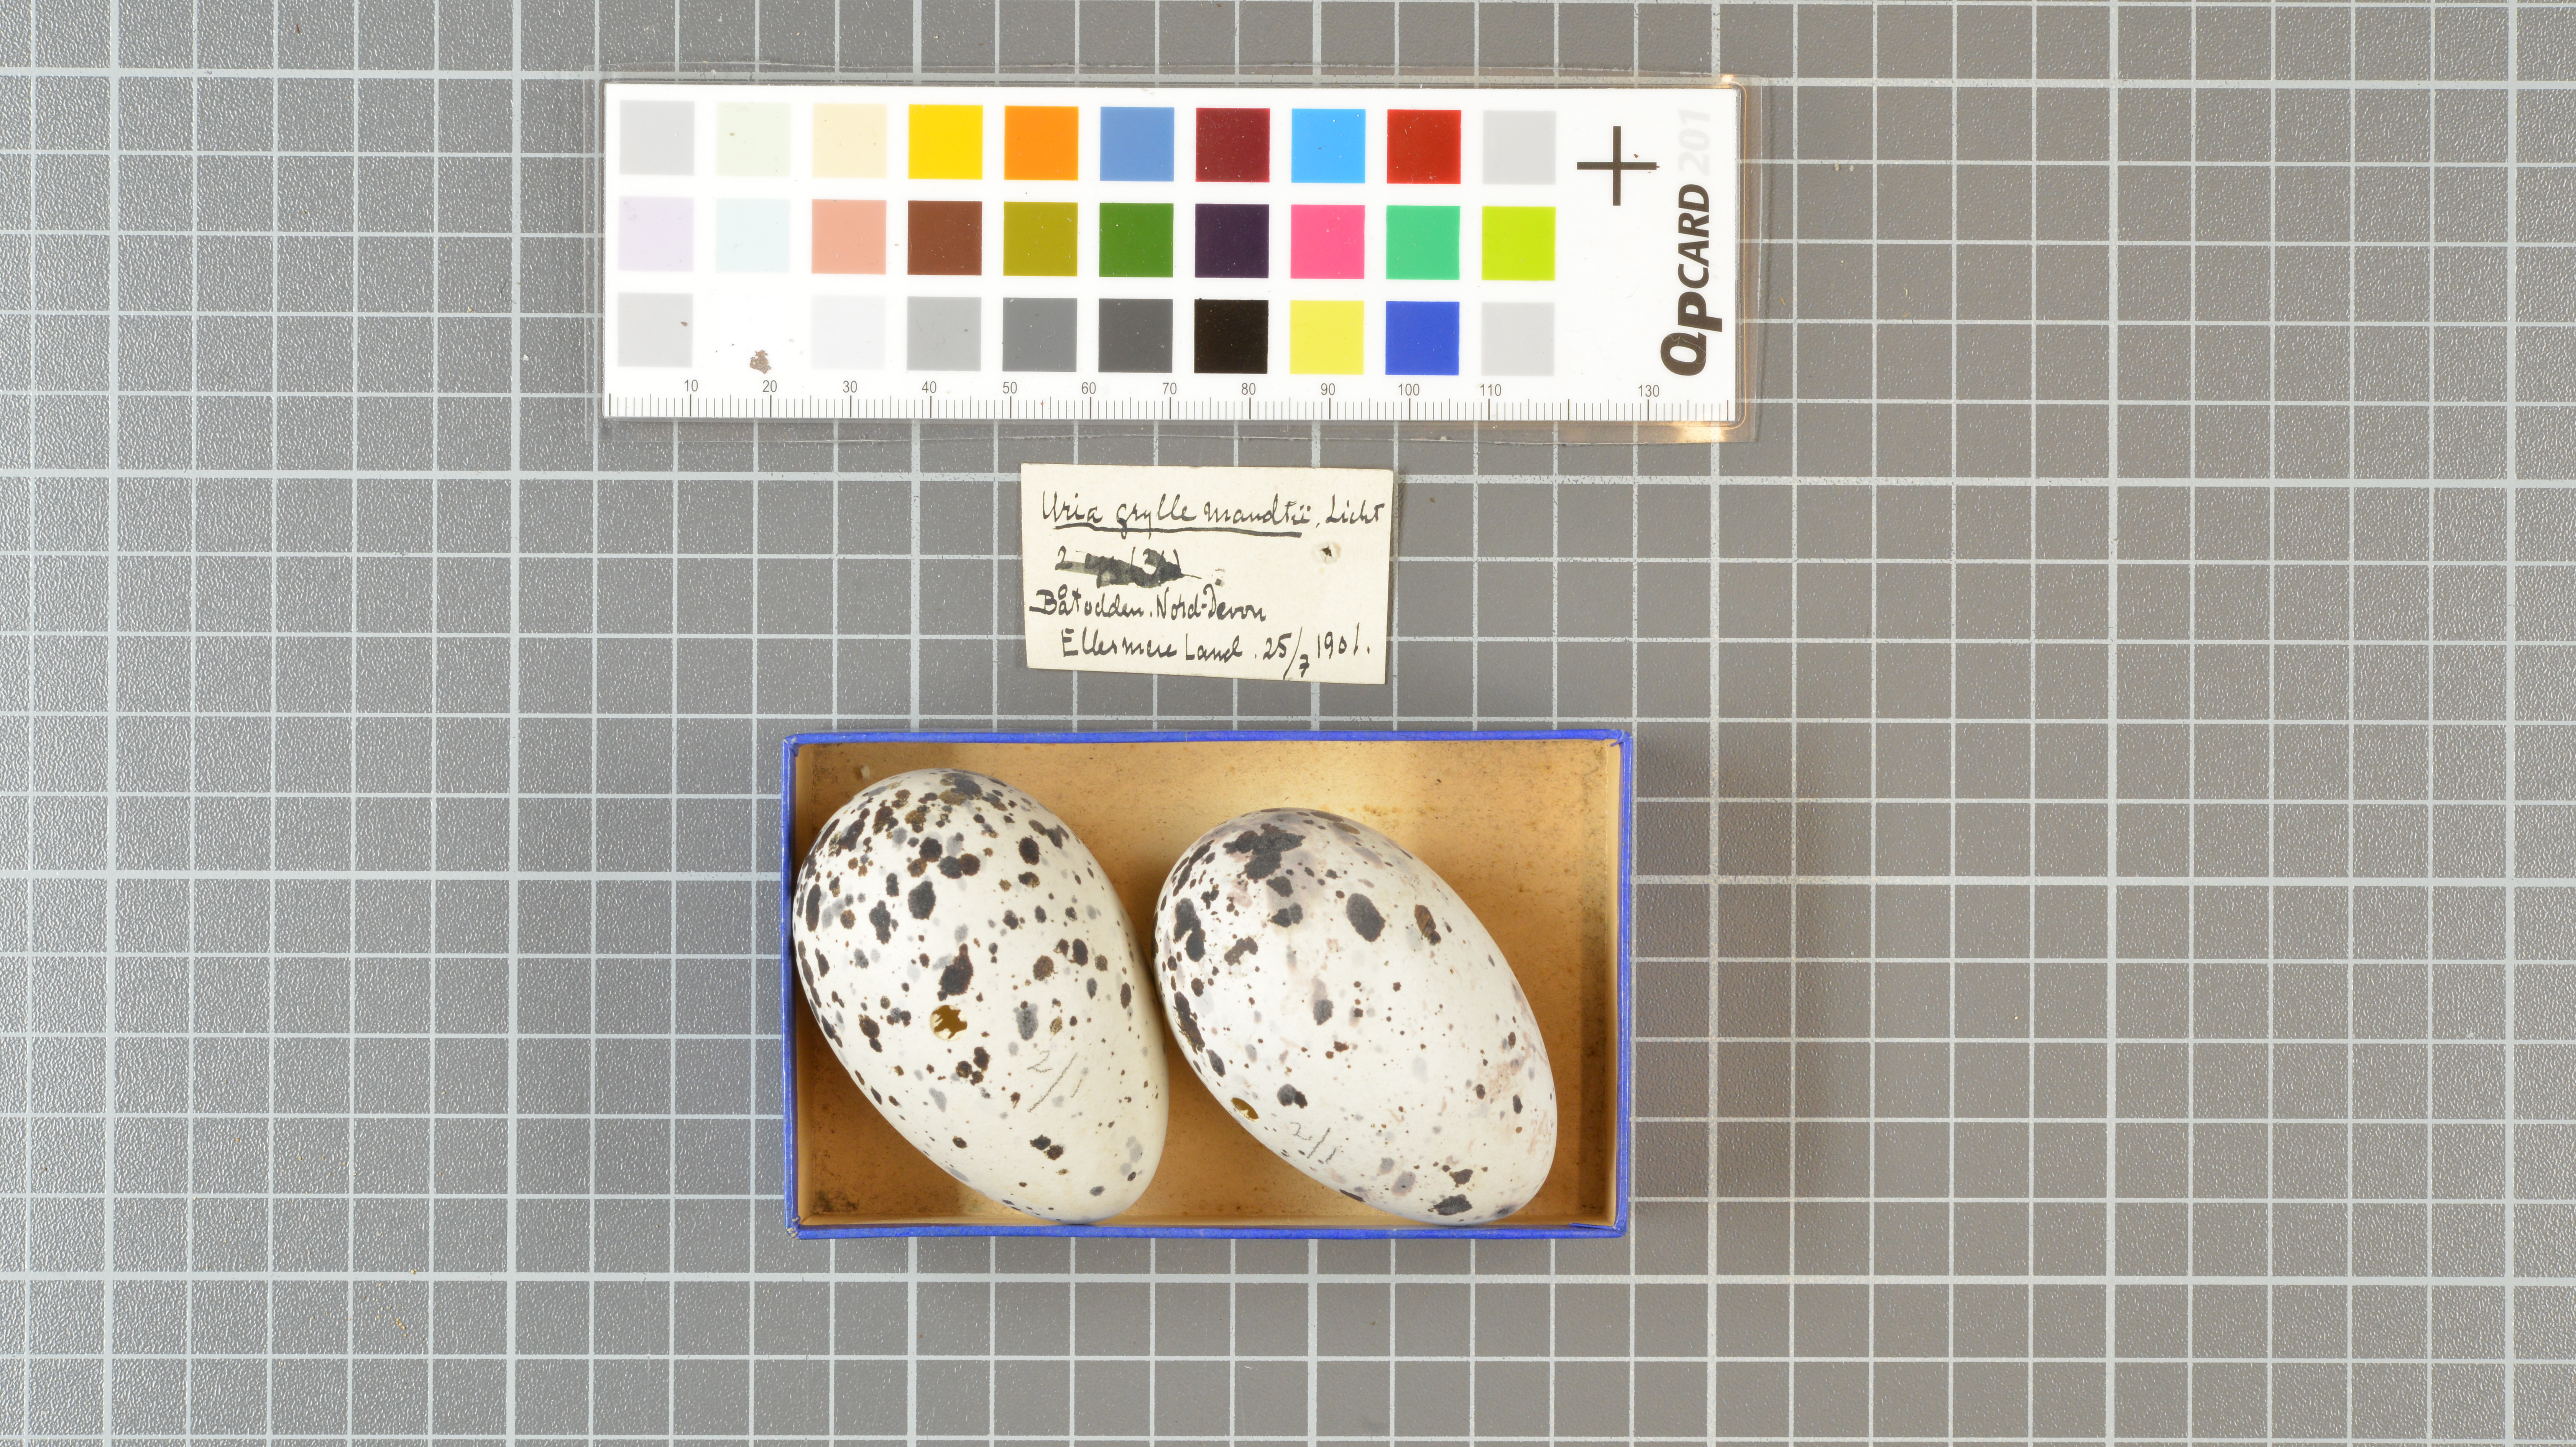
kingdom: Animalia
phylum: Chordata
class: Aves
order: Charadriiformes
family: Alcidae
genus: Cepphus
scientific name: Cepphus grylle
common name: Black guillemot
